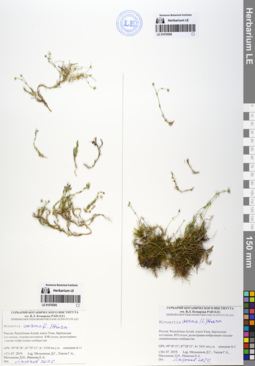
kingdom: Plantae
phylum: Tracheophyta
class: Magnoliopsida
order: Caryophyllales
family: Caryophyllaceae
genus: Sabulina
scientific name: Sabulina verna
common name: Spring sandwort
